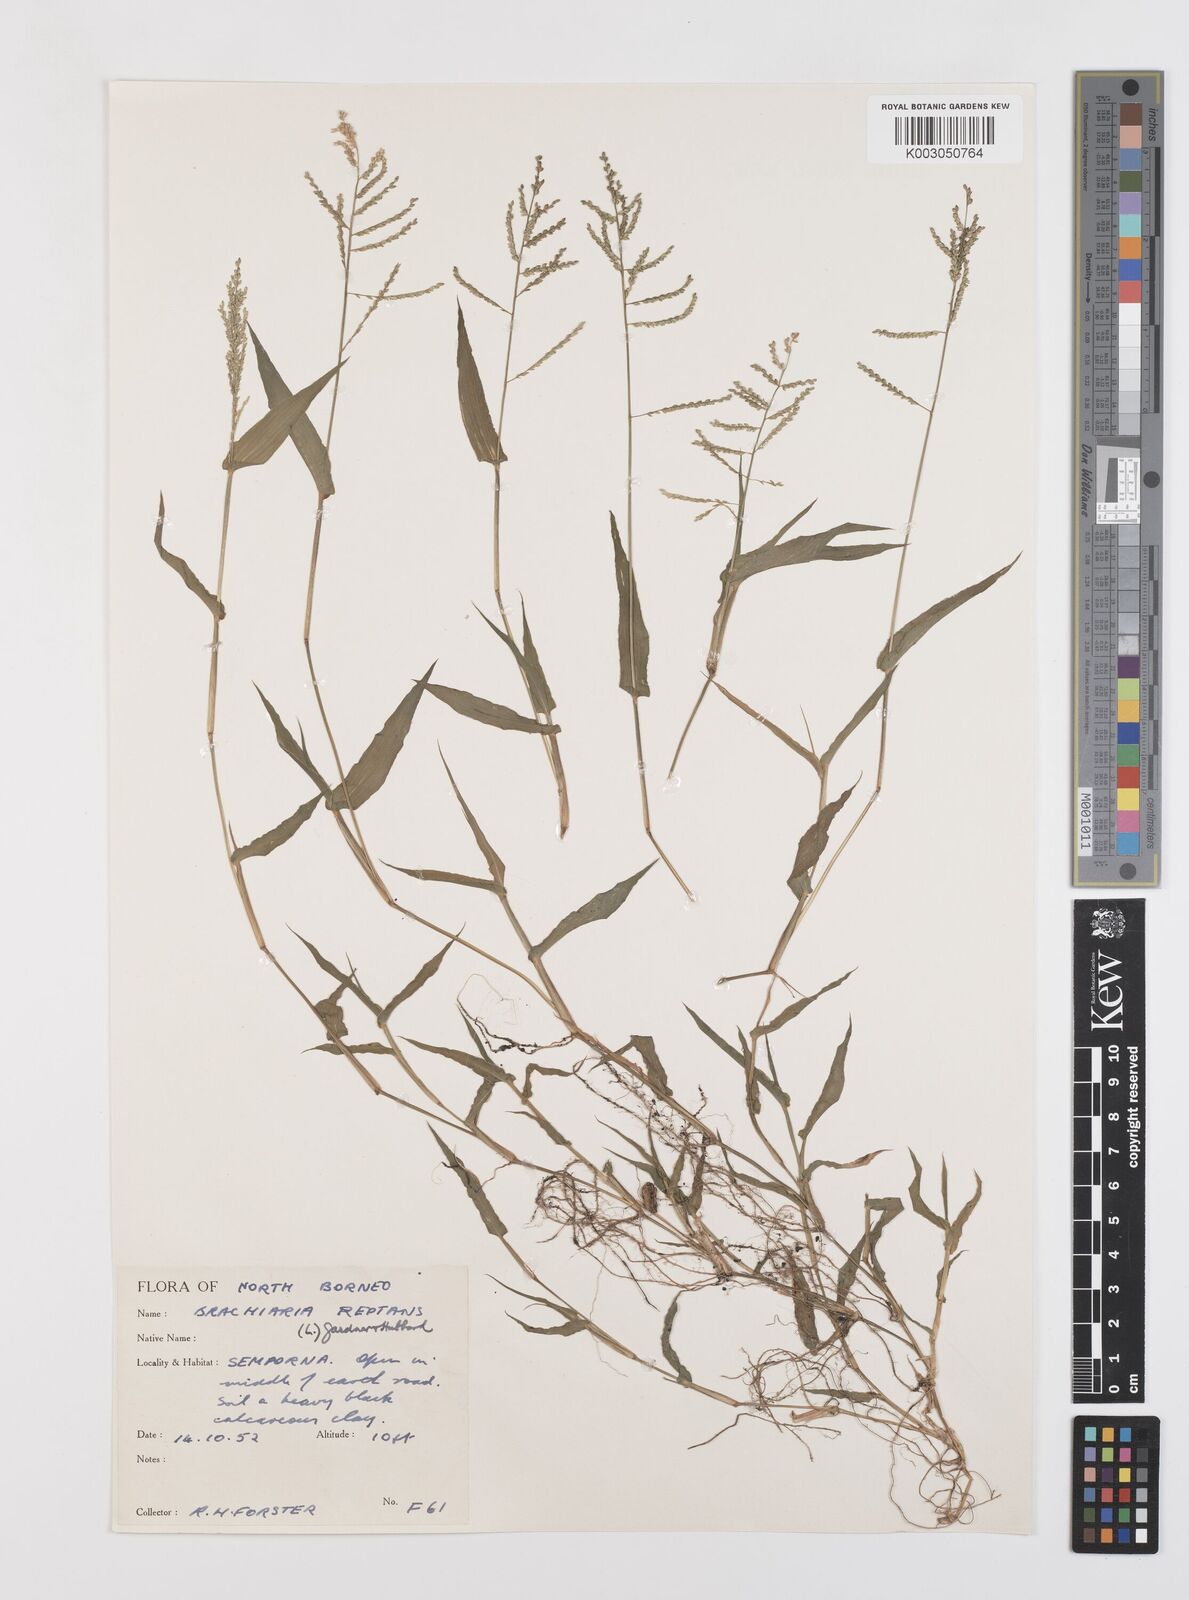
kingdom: Plantae
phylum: Tracheophyta
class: Liliopsida
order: Poales
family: Poaceae
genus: Urochloa
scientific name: Urochloa reptans
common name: Sprawling signalgrass
